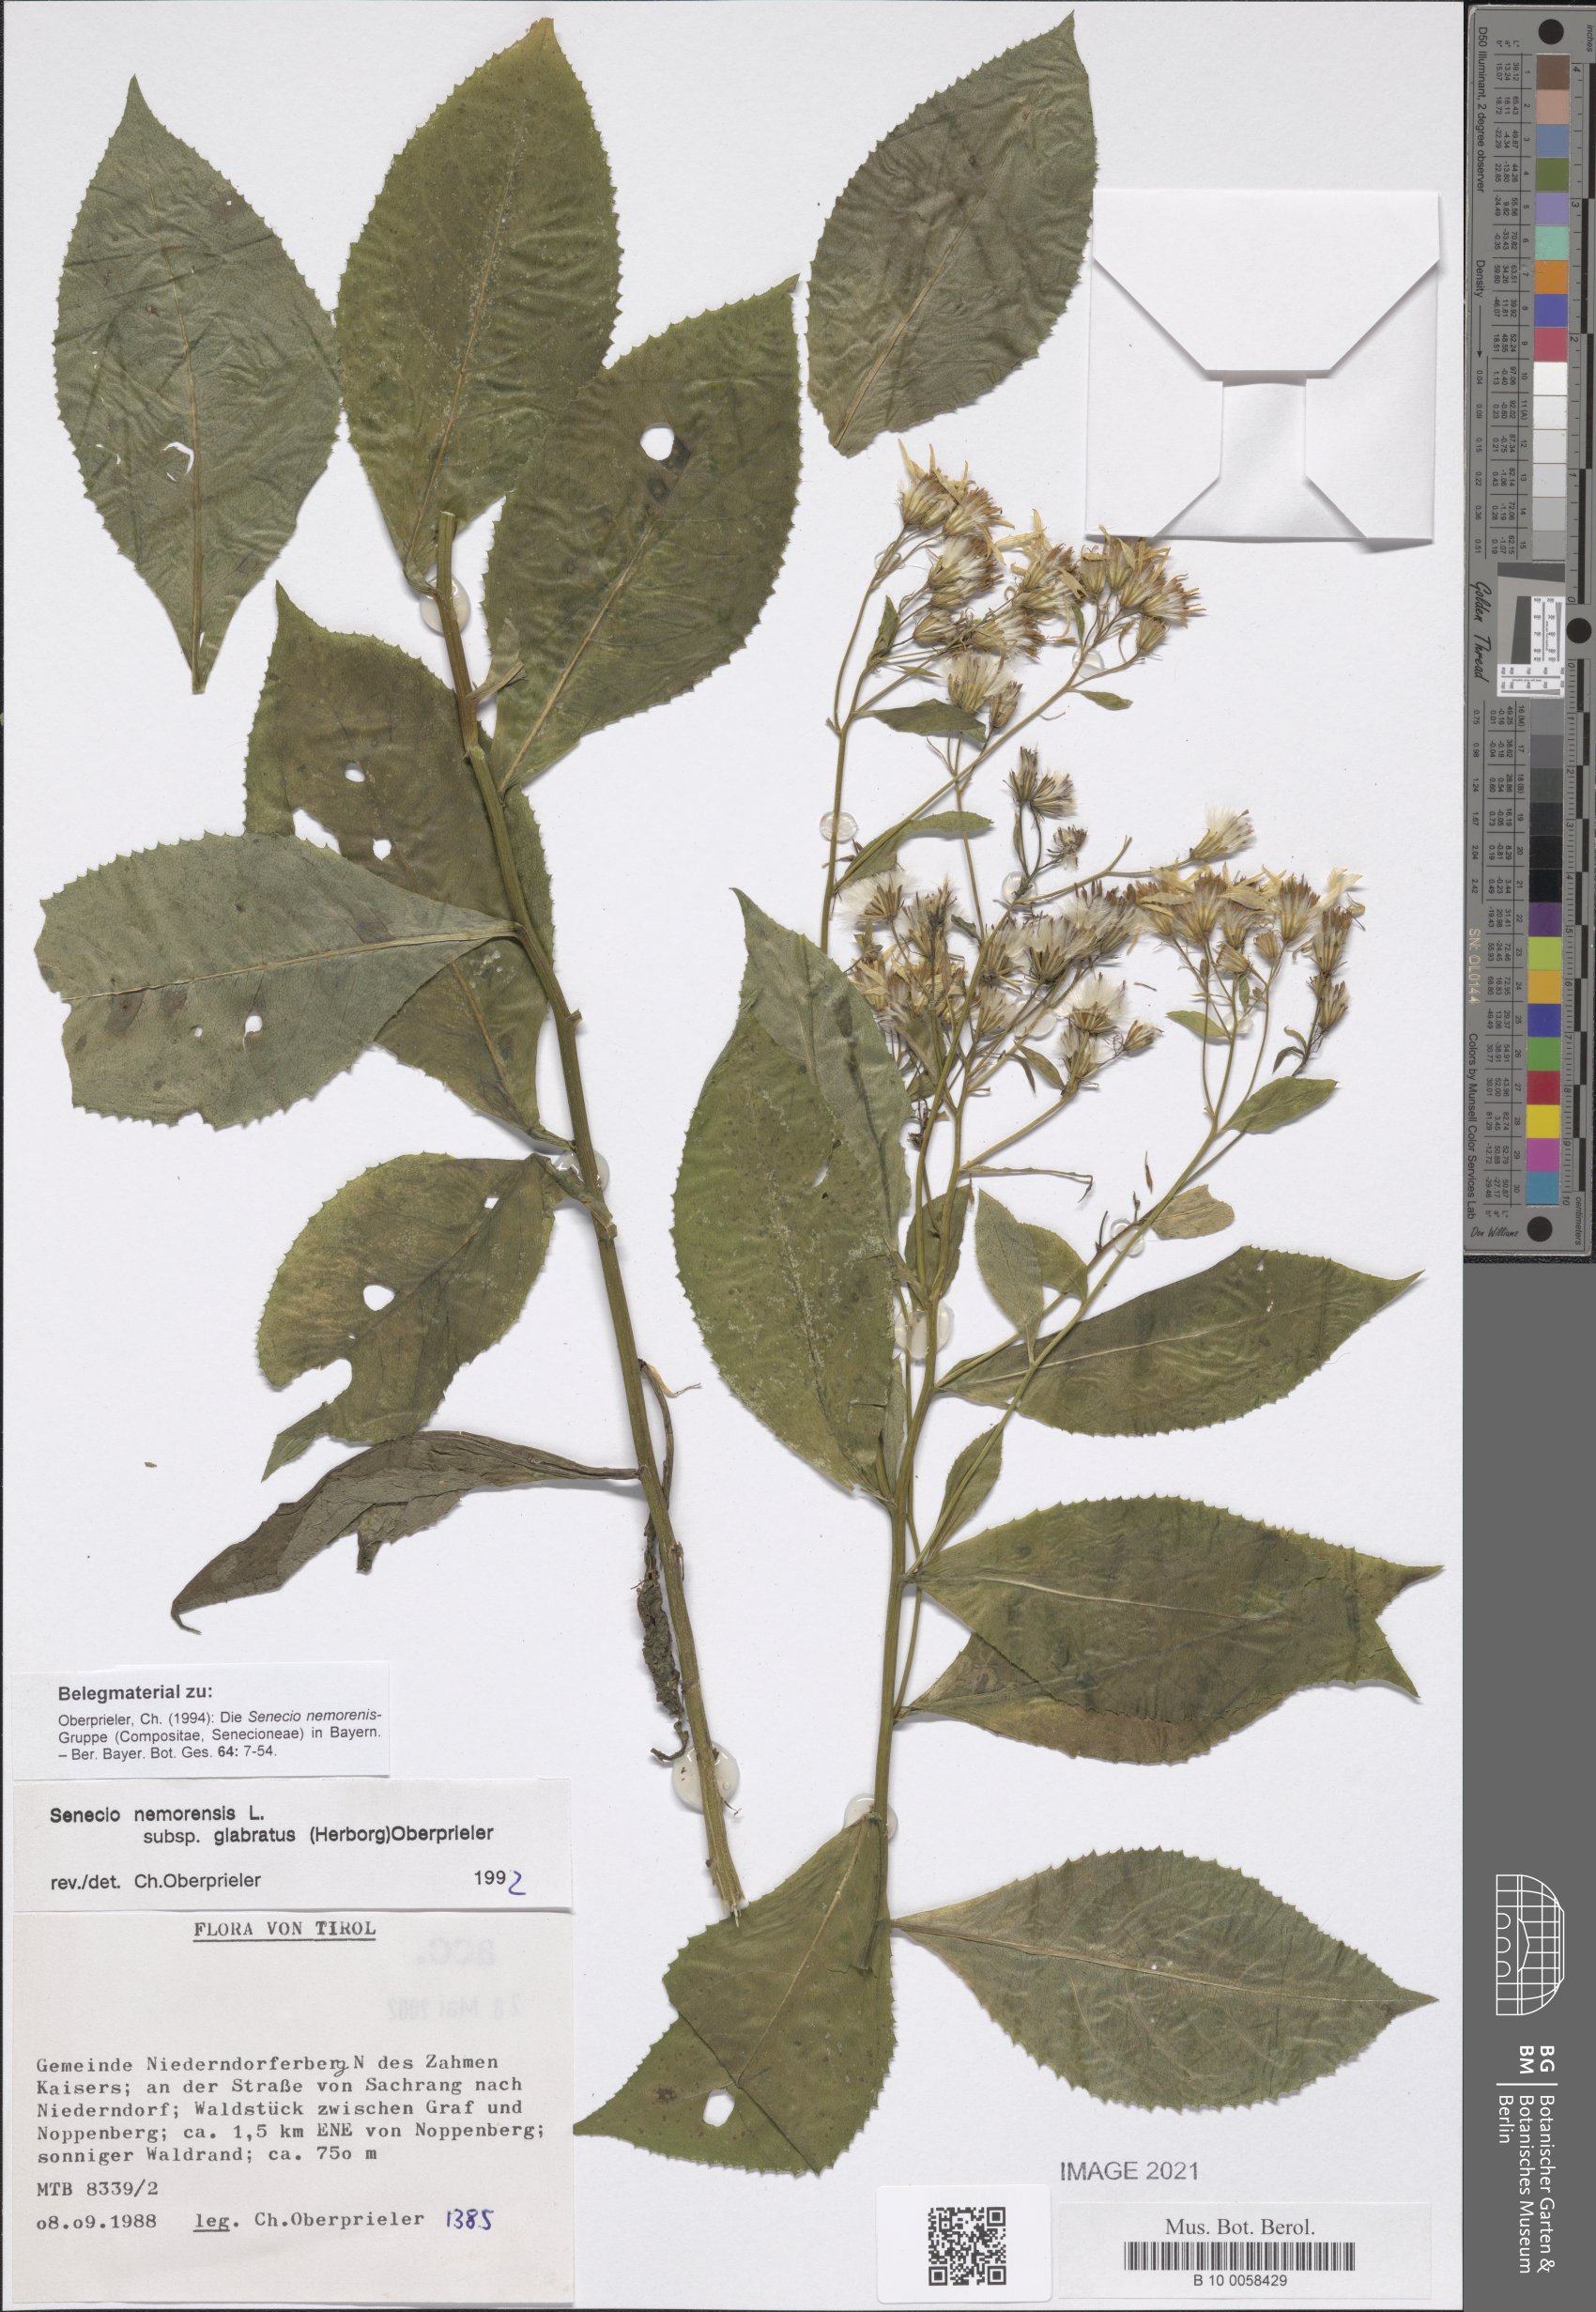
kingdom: Plantae
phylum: Tracheophyta
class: Magnoliopsida
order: Asterales
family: Asteraceae
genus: Senecio
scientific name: Senecio germanicus
